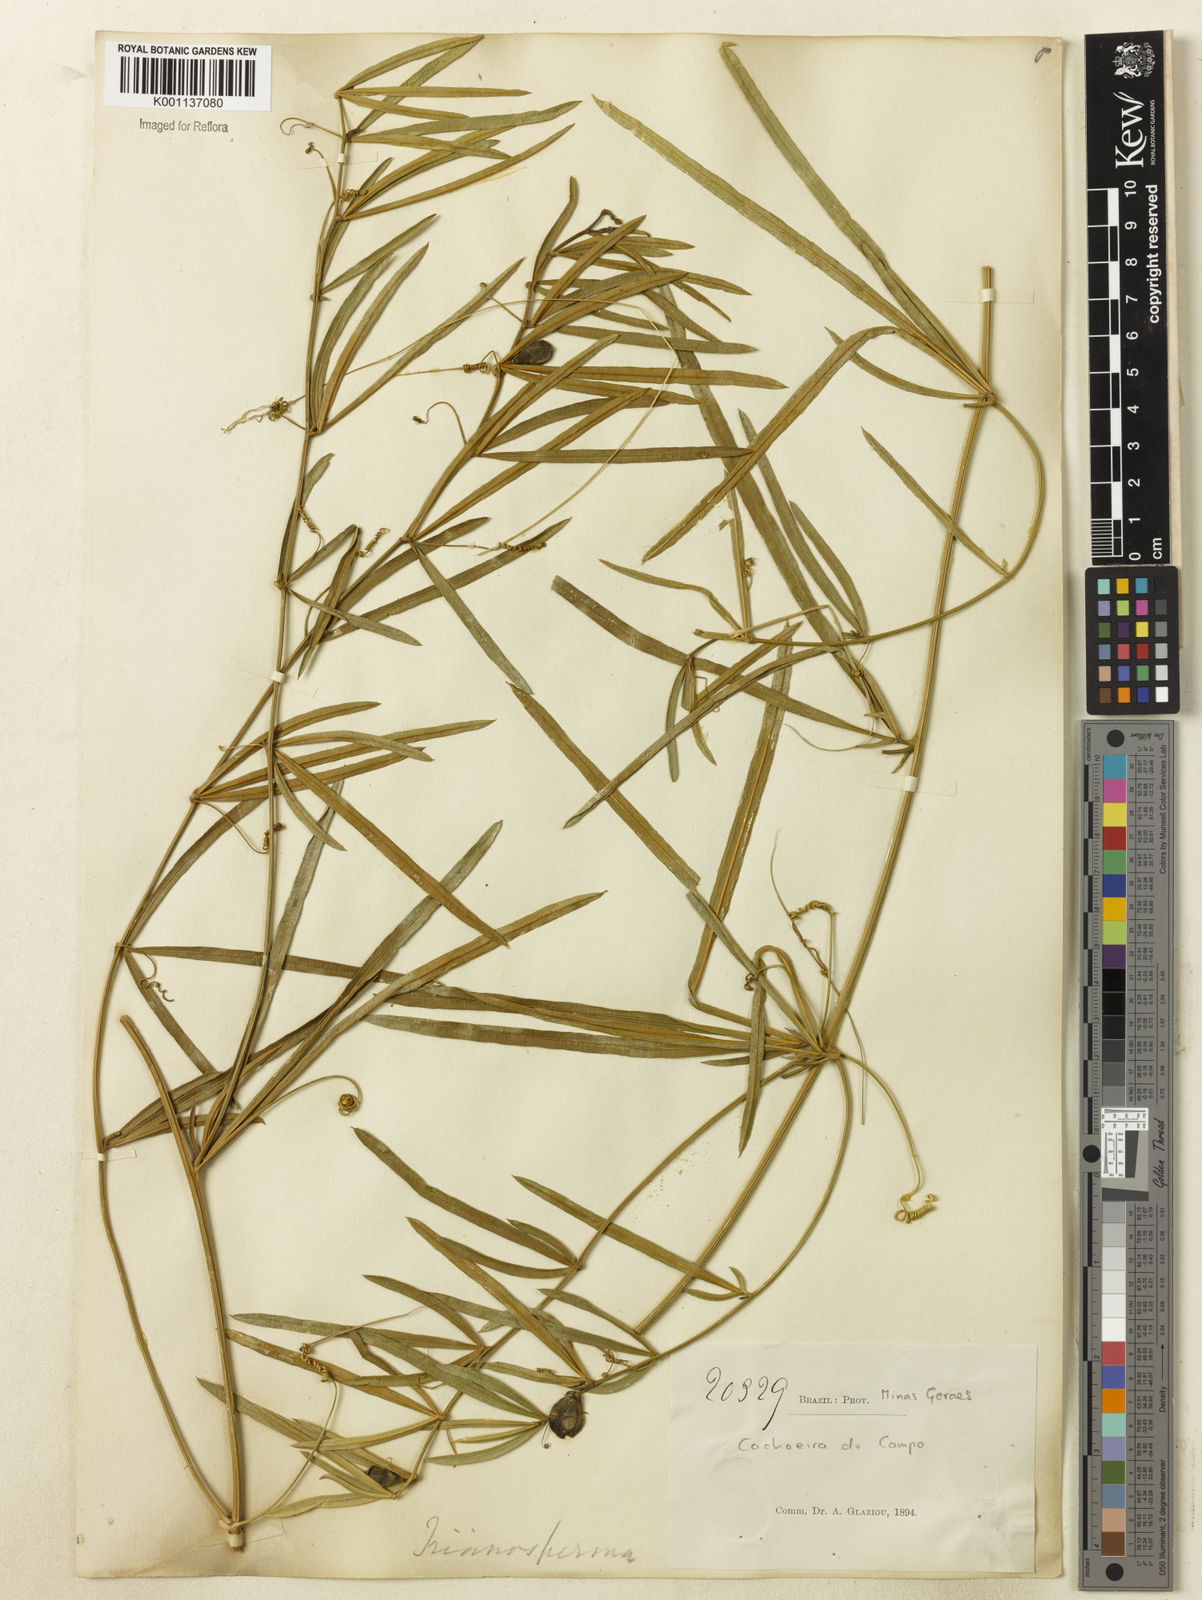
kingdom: Plantae
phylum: Tracheophyta
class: Magnoliopsida
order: Cucurbitales
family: Cucurbitaceae
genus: Cayaponia
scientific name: Cayaponia espelina
